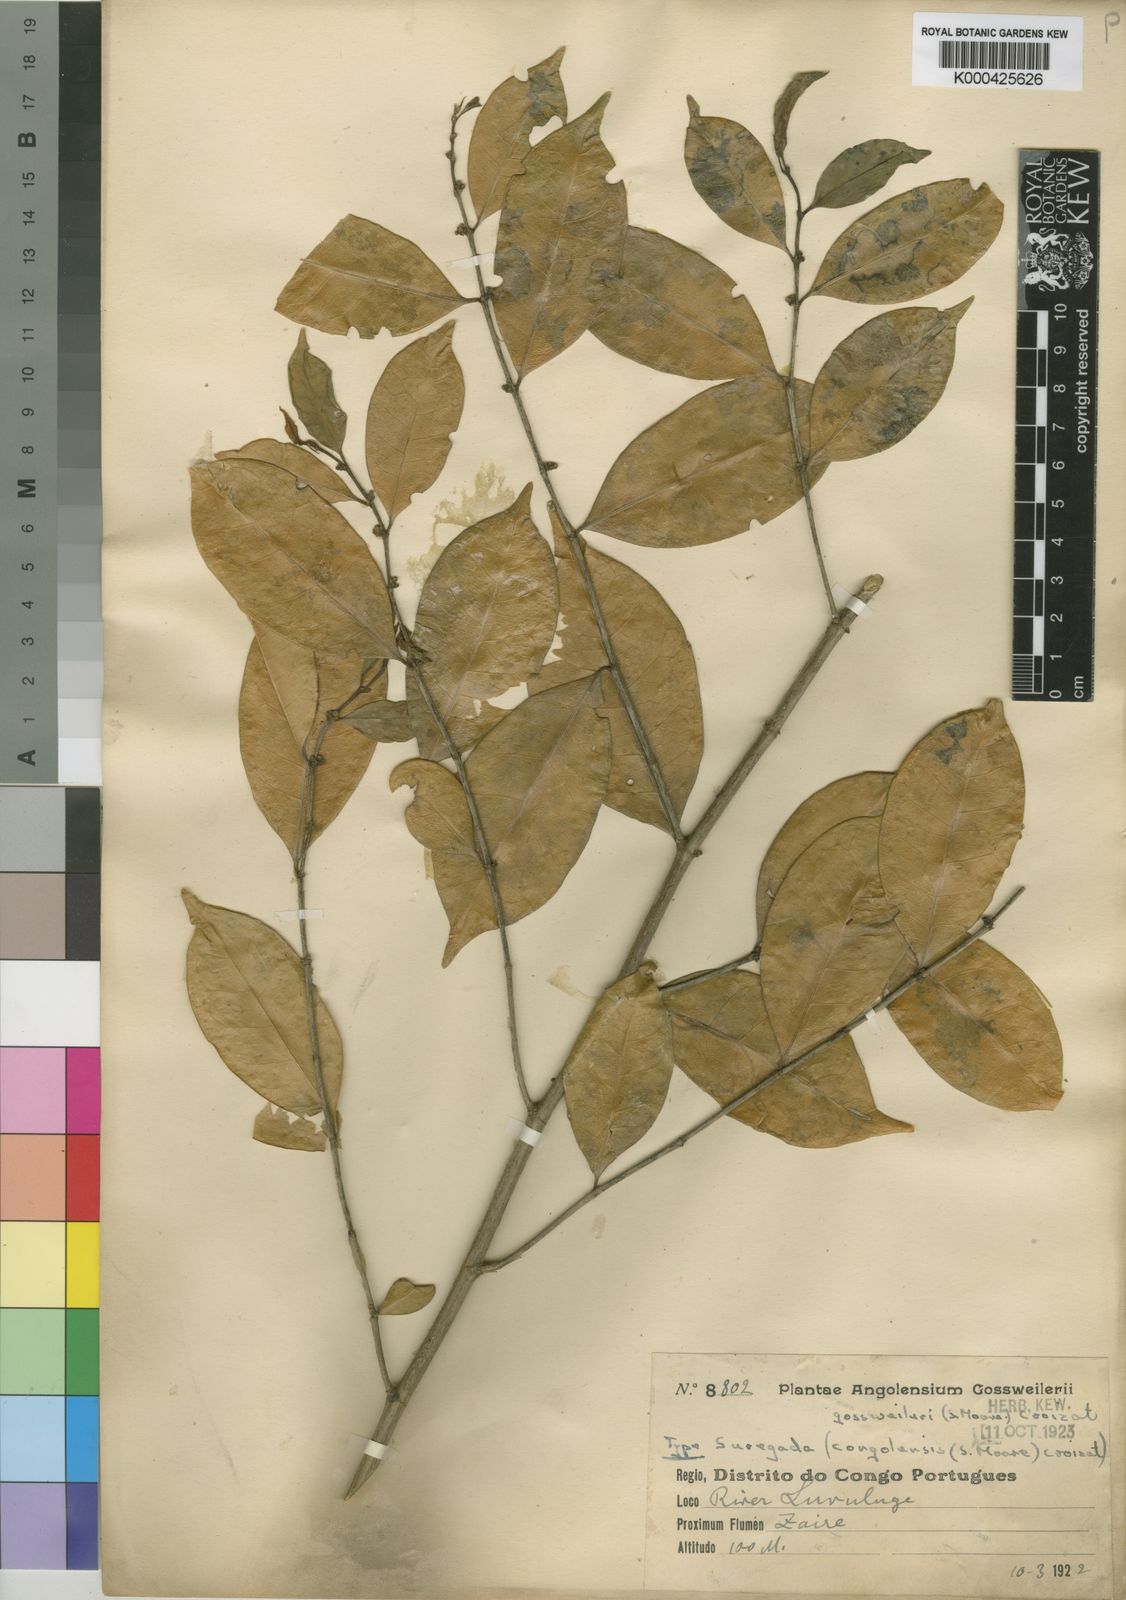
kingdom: Plantae
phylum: Tracheophyta
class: Magnoliopsida
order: Malpighiales
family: Euphorbiaceae
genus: Suregada
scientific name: Suregada gossweileri
